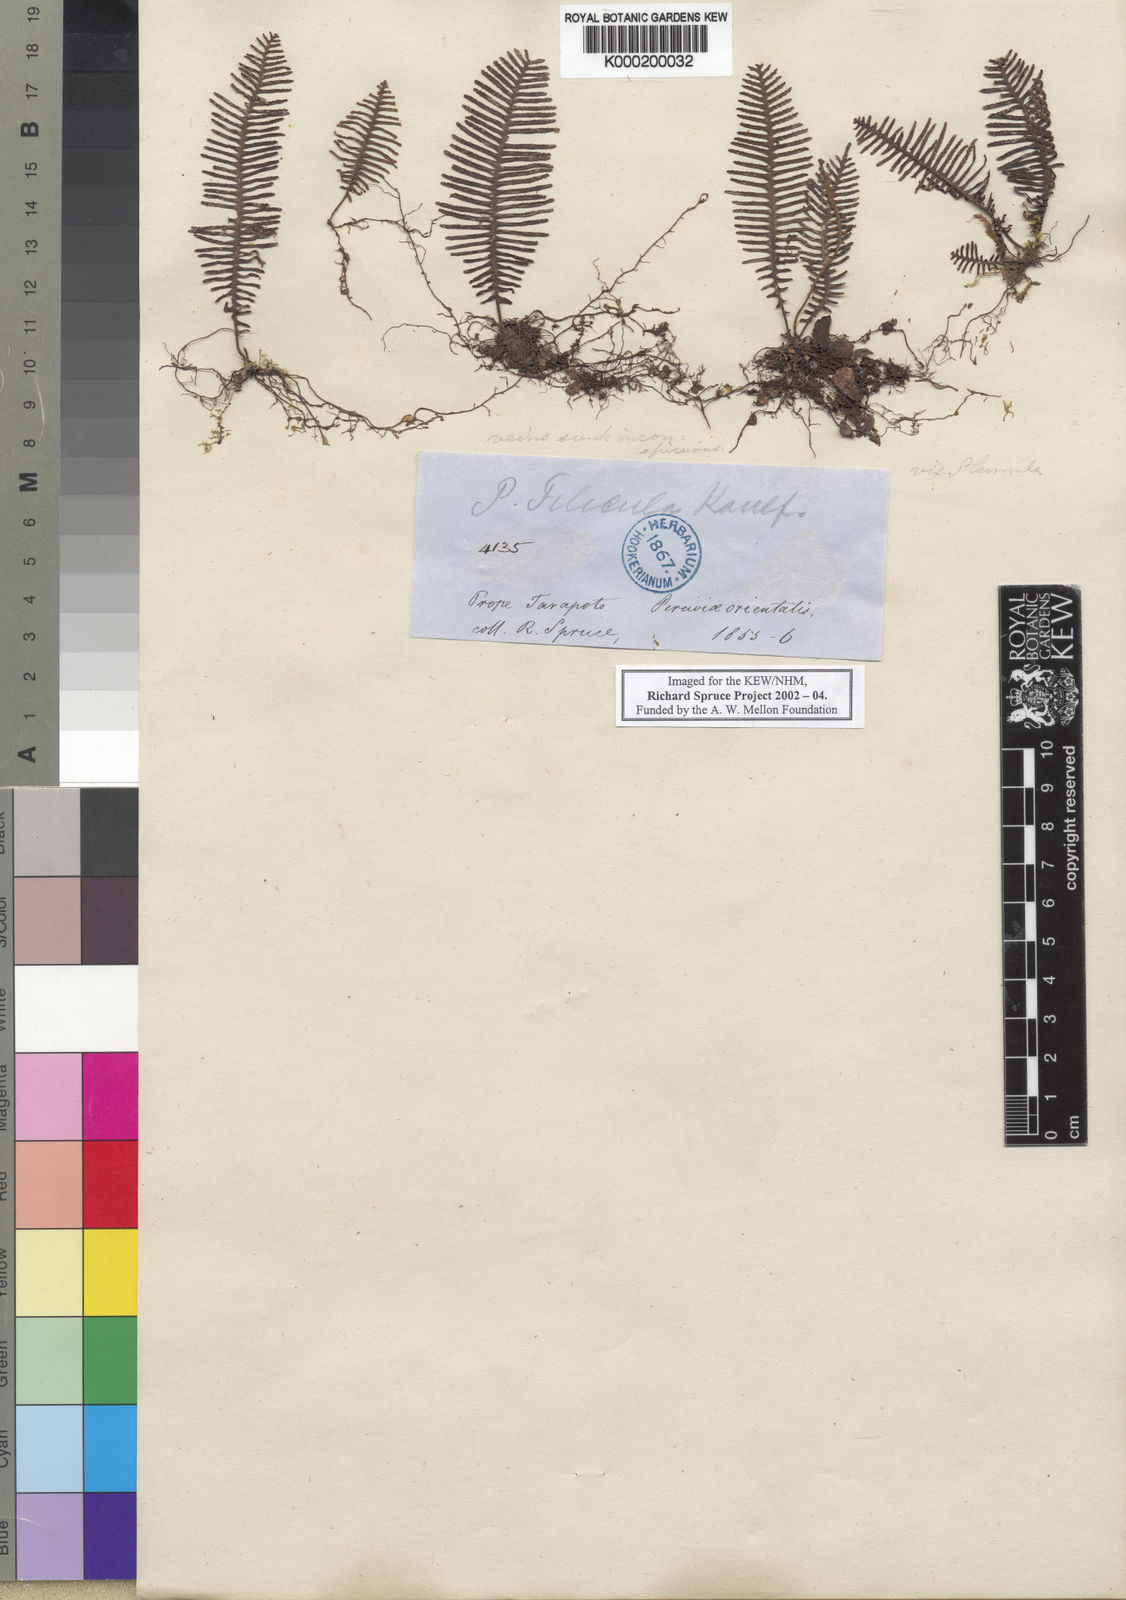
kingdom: Plantae
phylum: Tracheophyta
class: Polypodiopsida
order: Polypodiales
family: Polypodiaceae
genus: Pecluma
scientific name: Pecluma filicula
